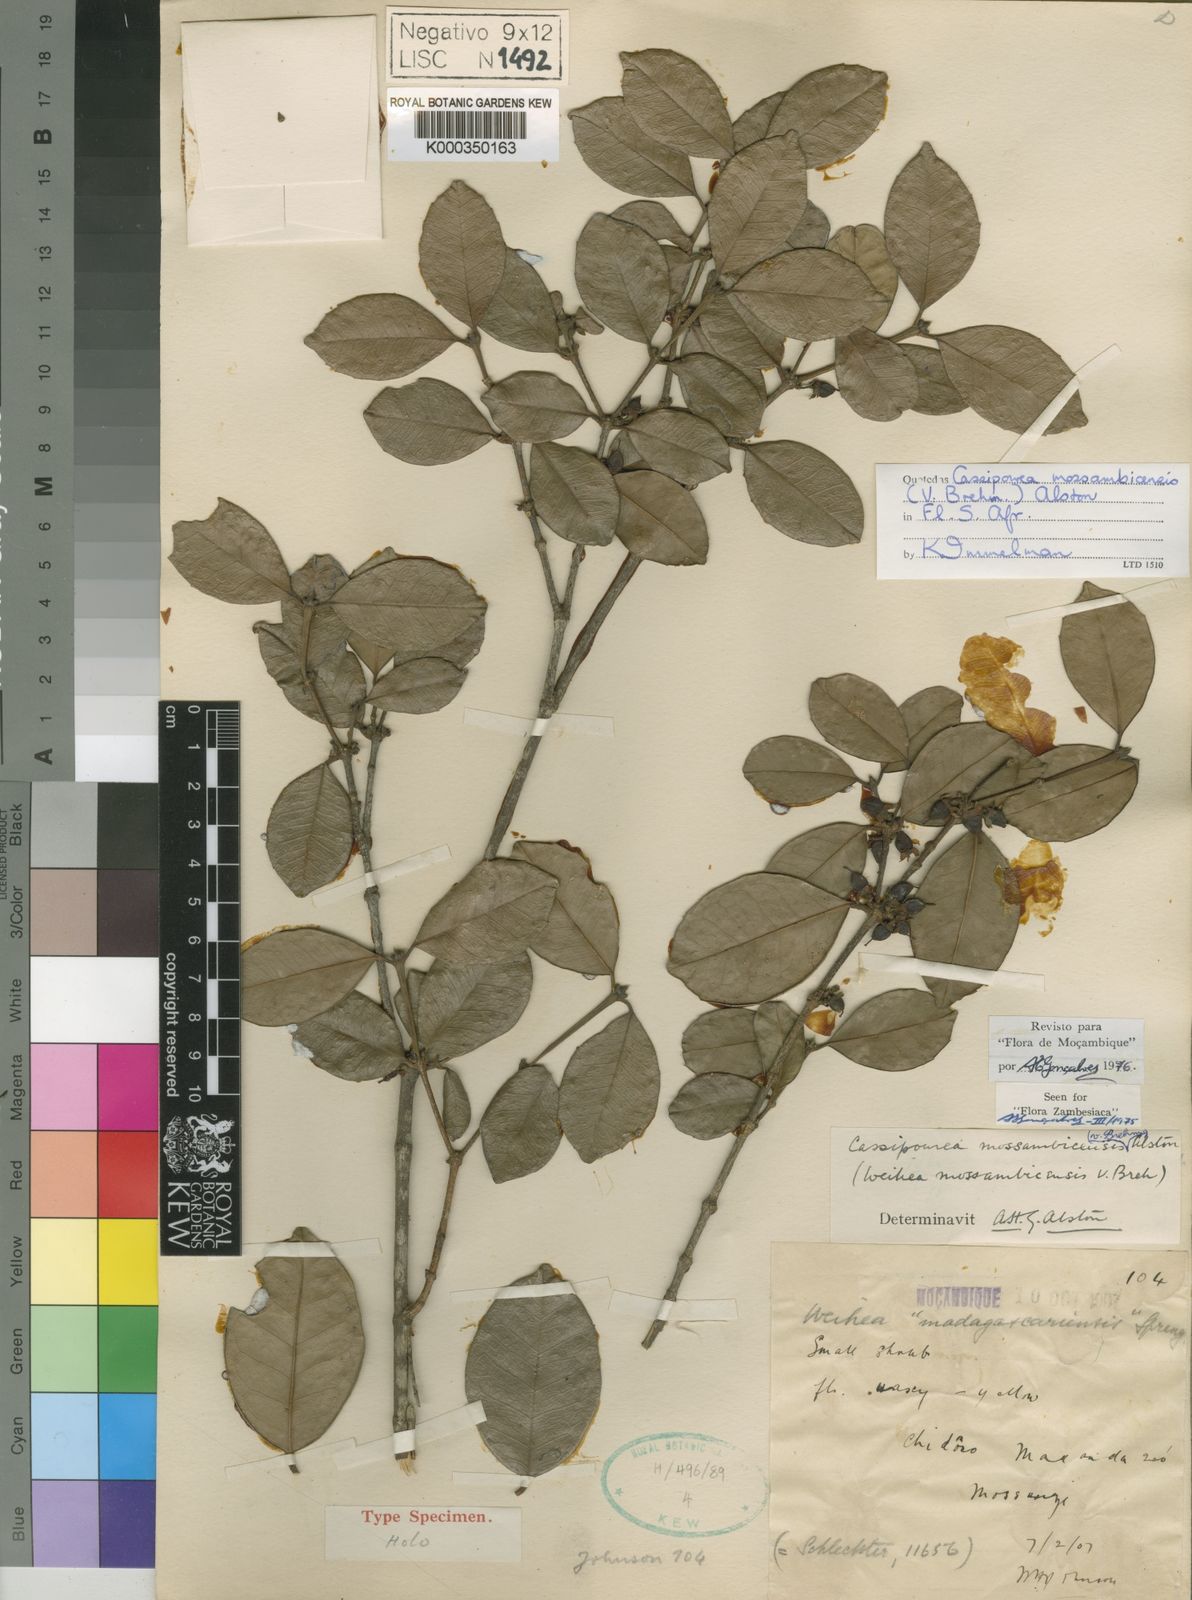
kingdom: Plantae
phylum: Tracheophyta
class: Magnoliopsida
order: Malpighiales
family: Rhizophoraceae
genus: Cassipourea
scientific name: Cassipourea mossambicensis
